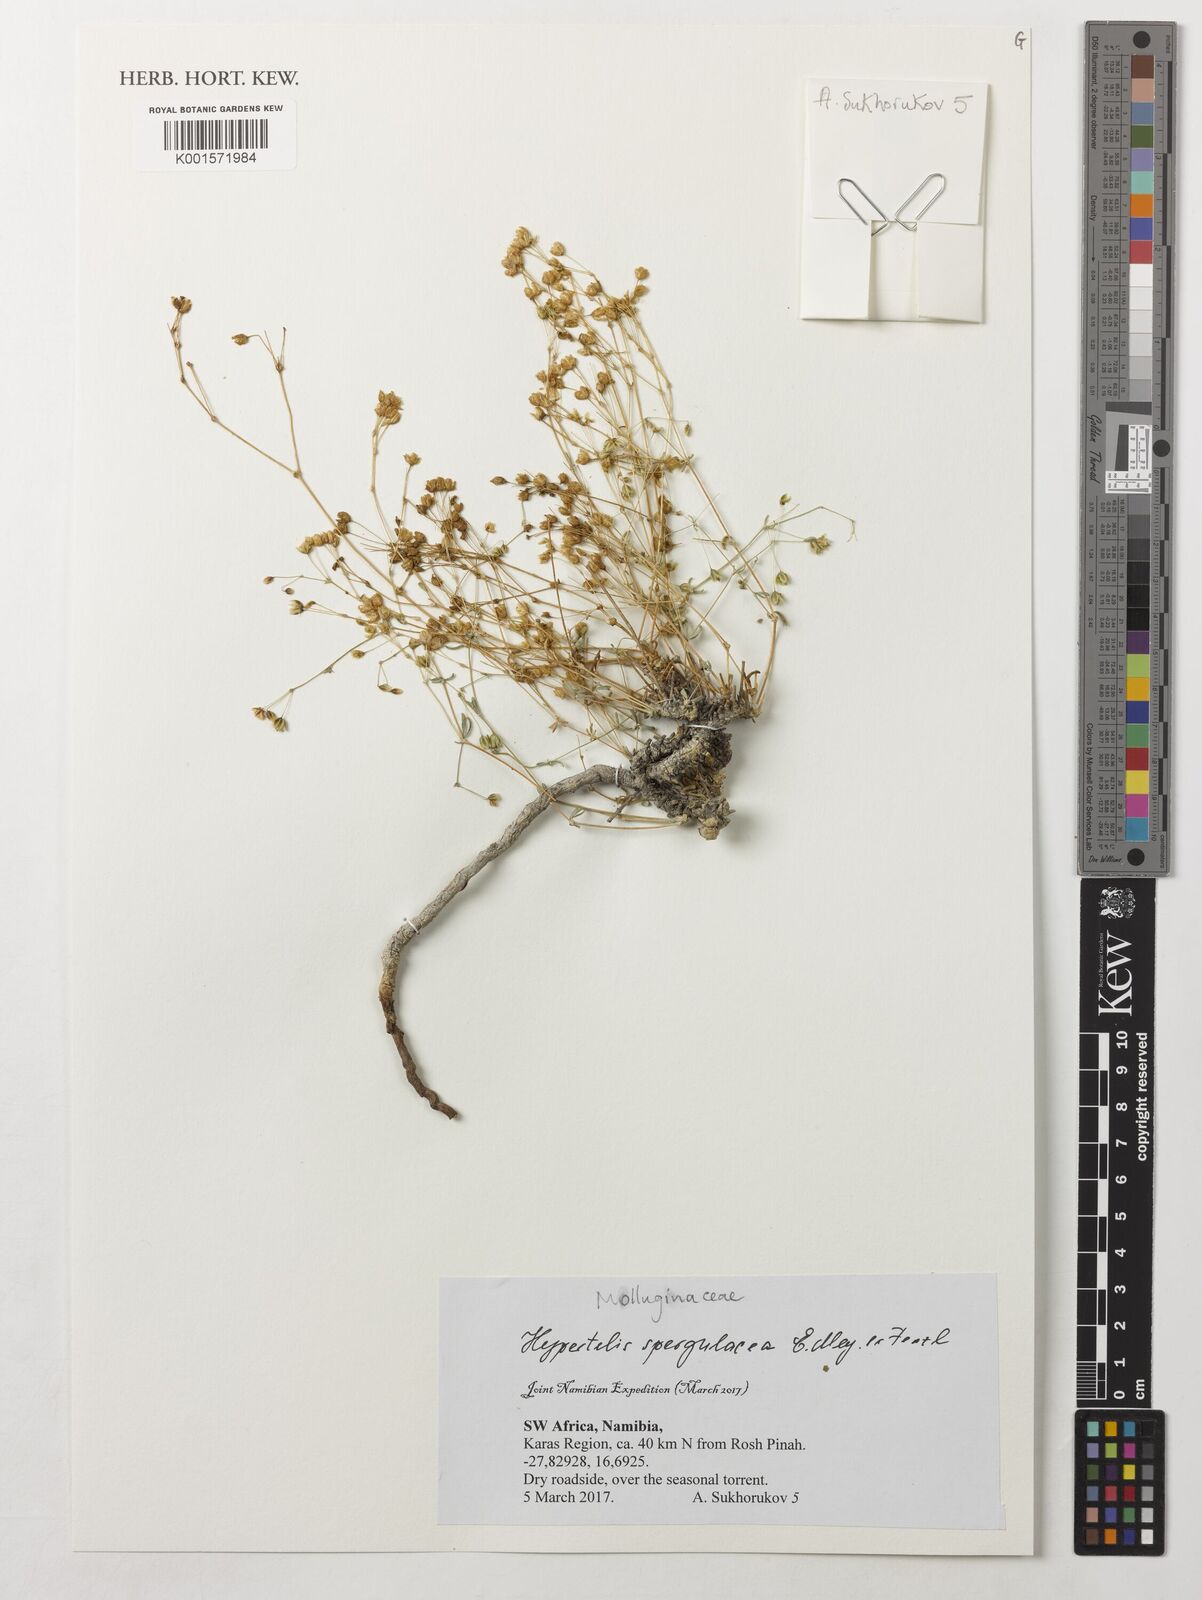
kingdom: Plantae
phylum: Tracheophyta
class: Magnoliopsida
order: Caryophyllales
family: Molluginaceae
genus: Hypertelis
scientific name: Hypertelis spergulacea
